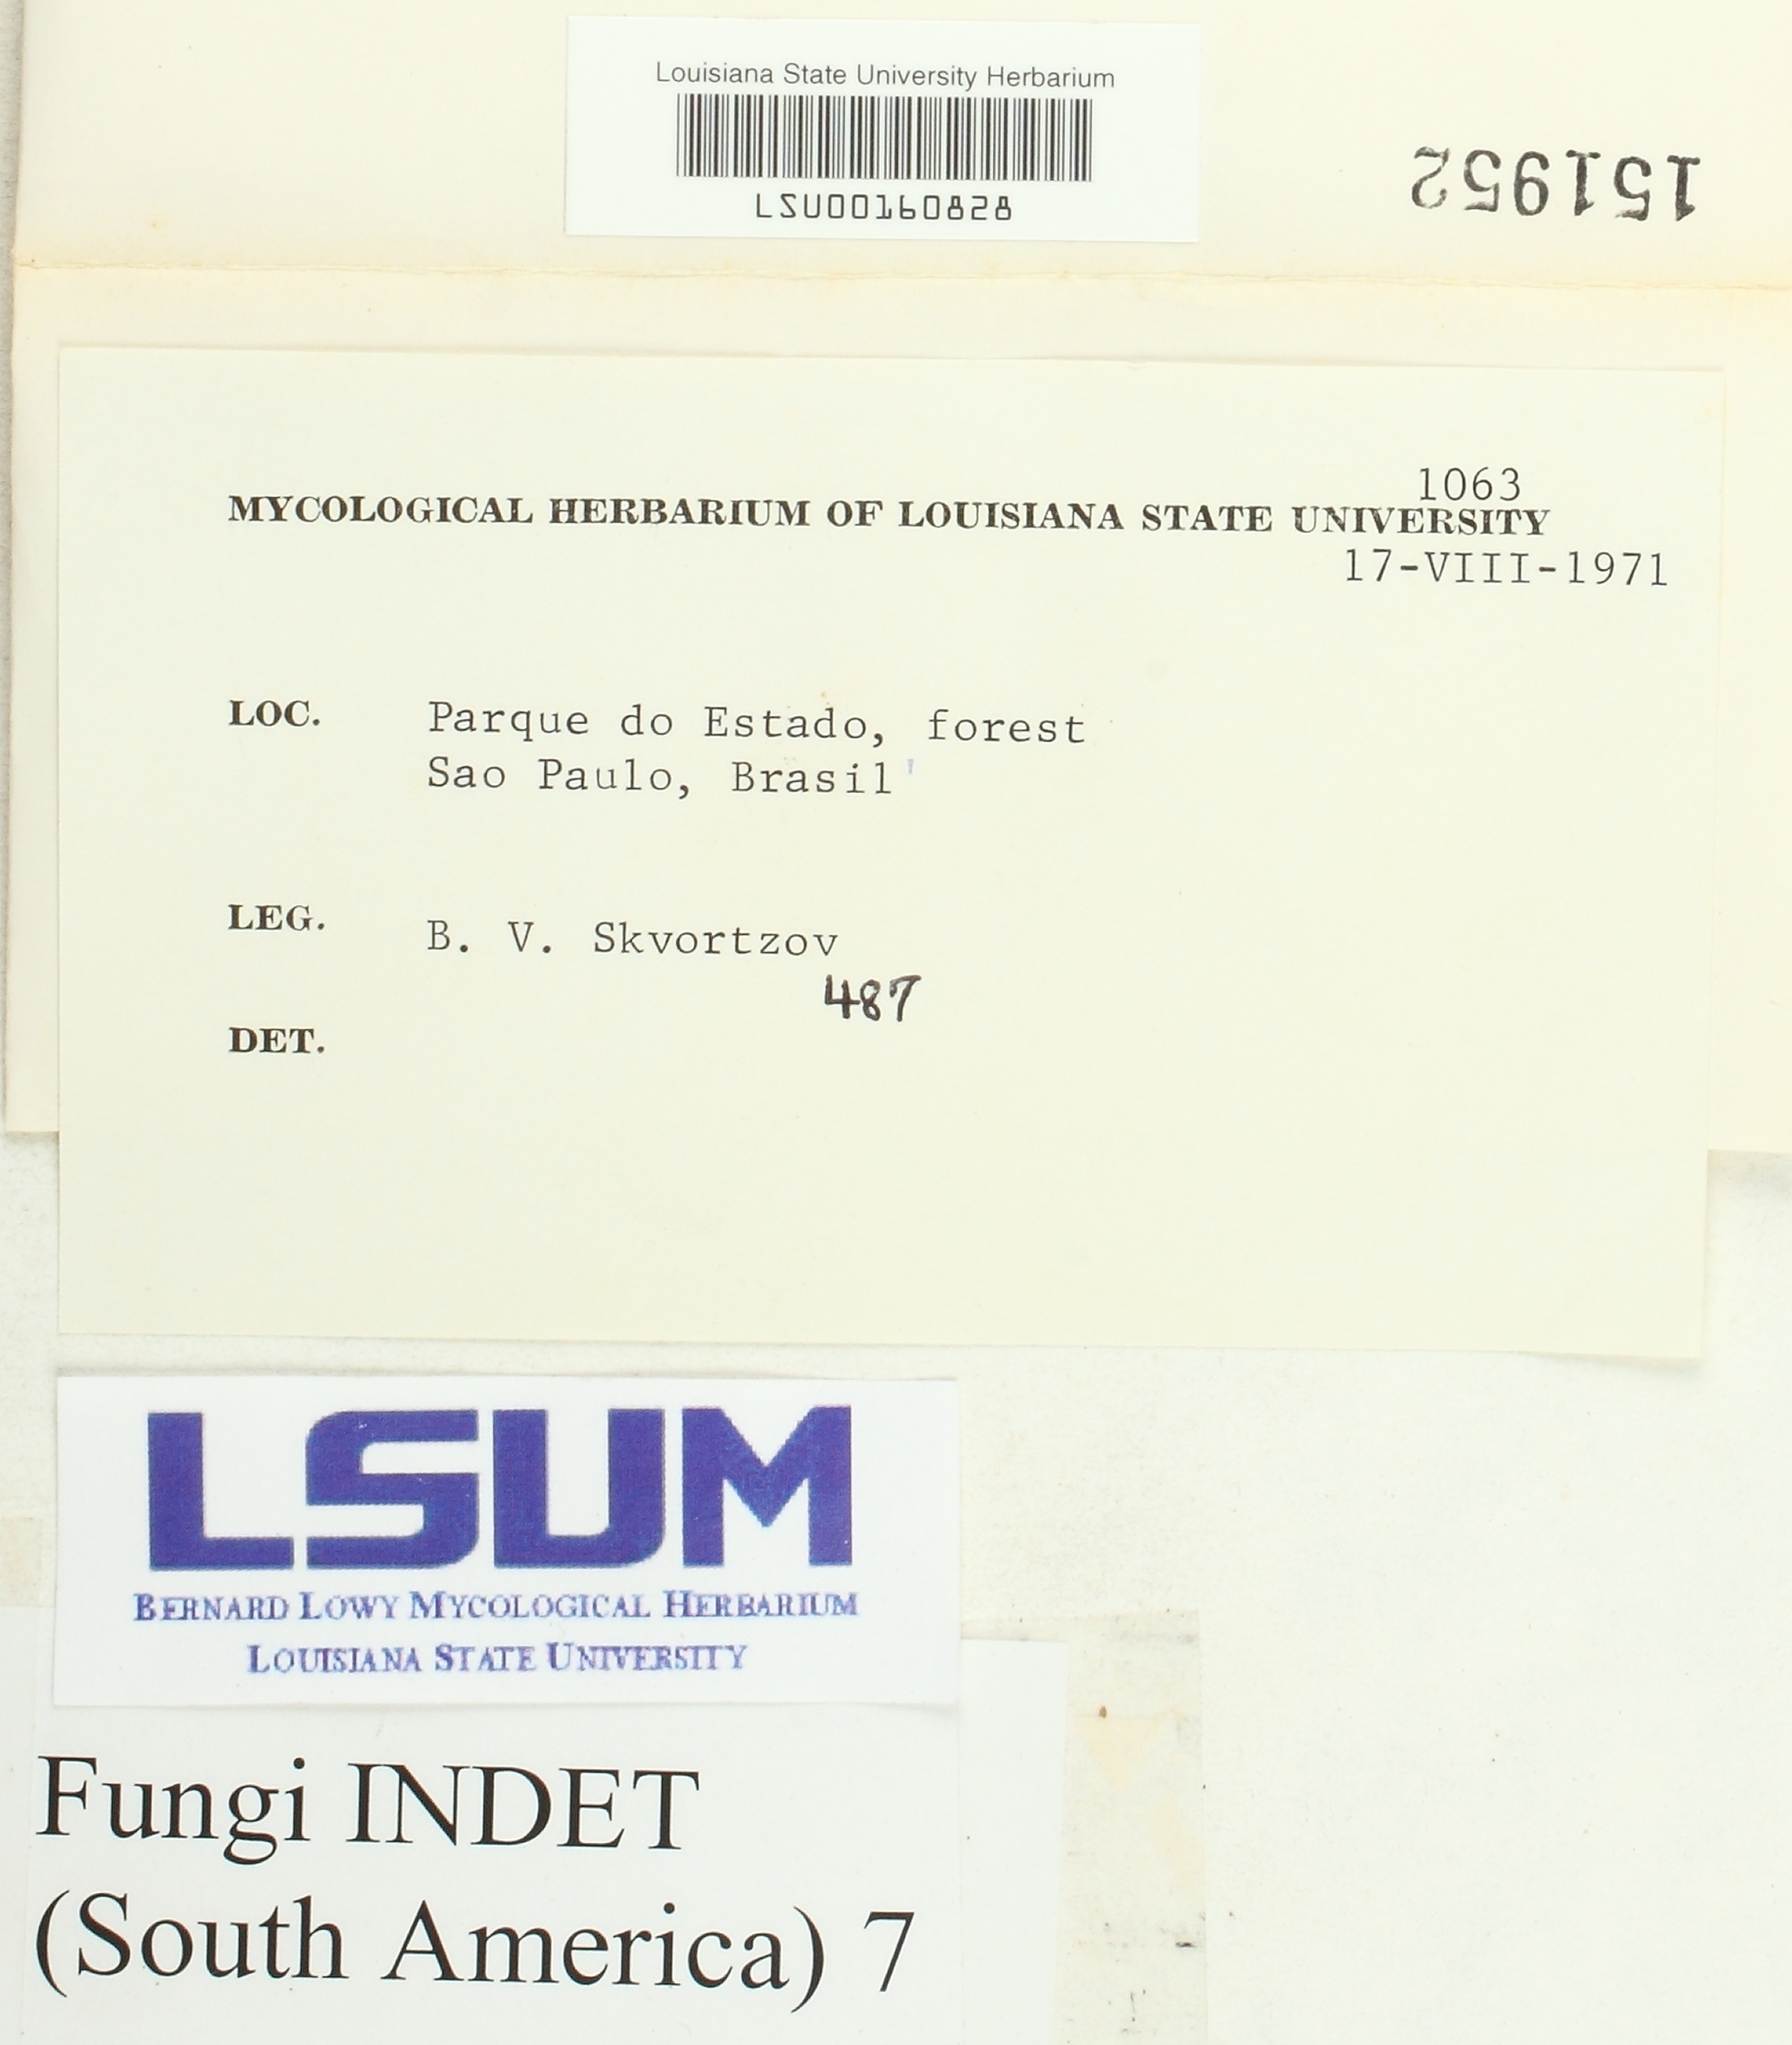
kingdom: Fungi
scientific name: Fungi
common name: Fungi
